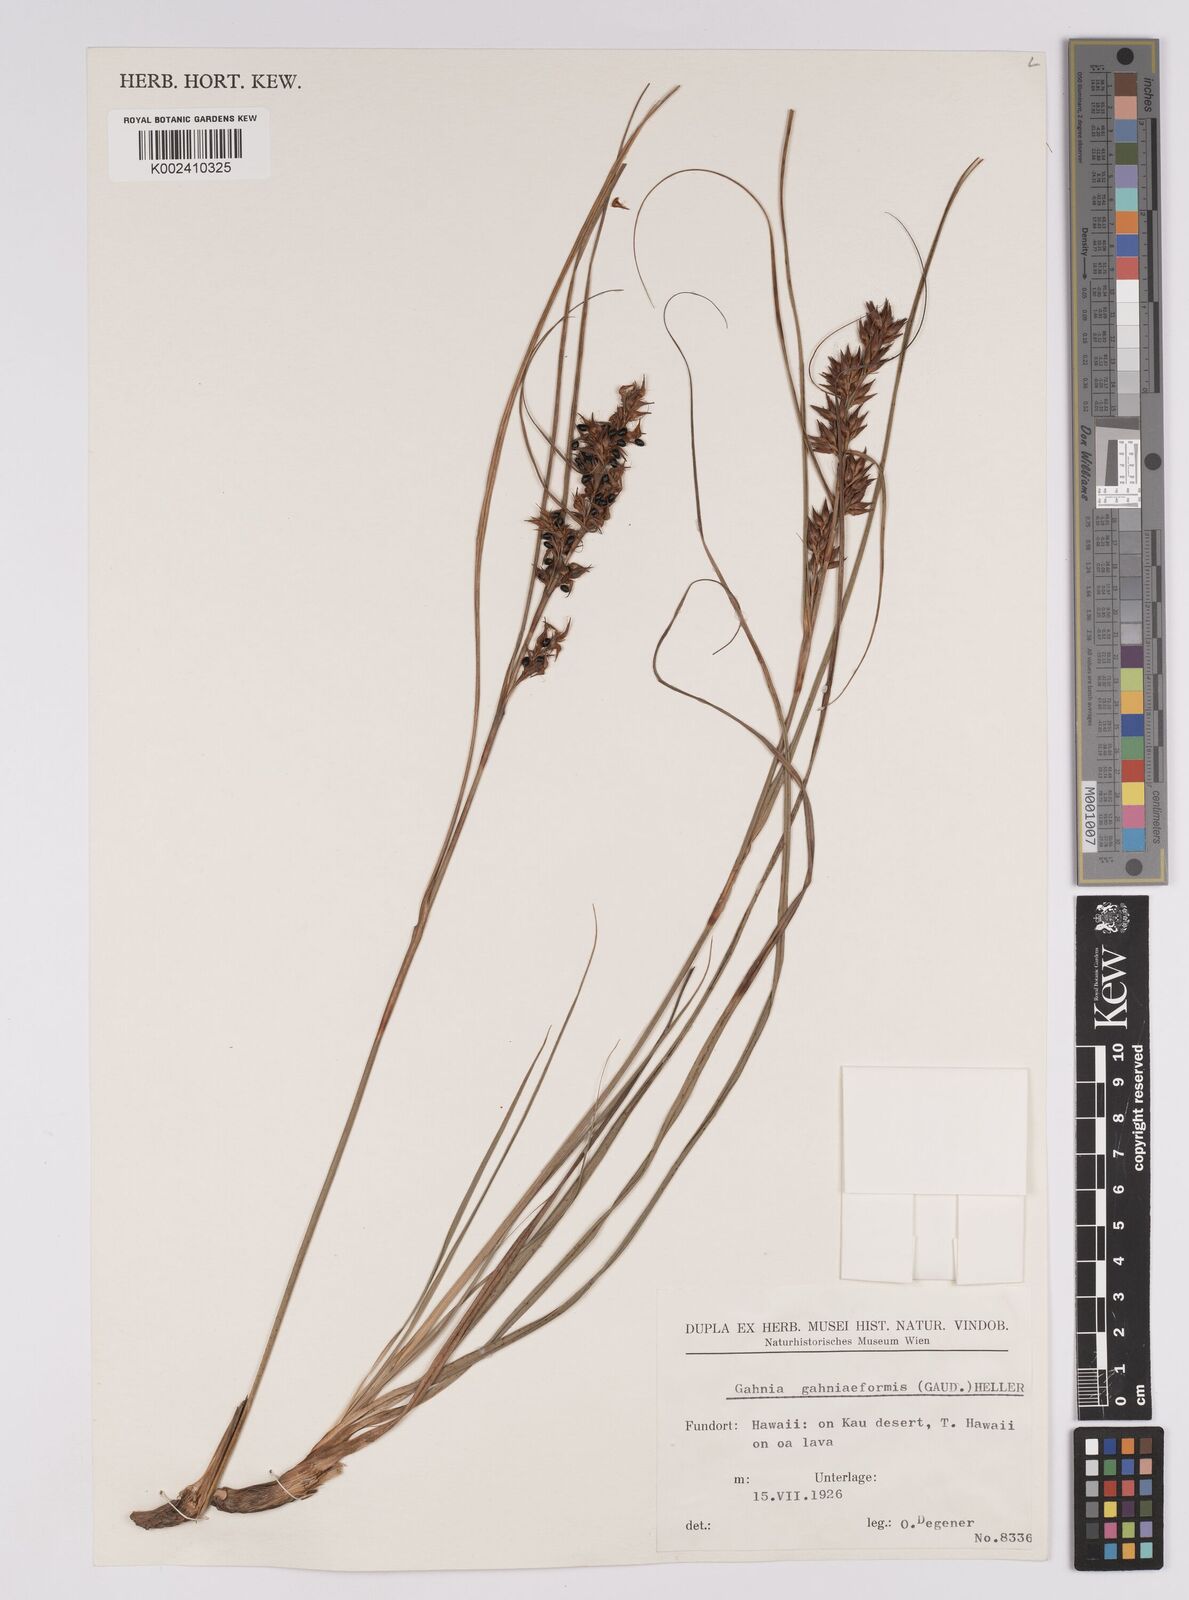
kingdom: Plantae
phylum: Tracheophyta
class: Liliopsida
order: Poales
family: Cyperaceae
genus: Morelotia
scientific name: Morelotia gahniiformis
